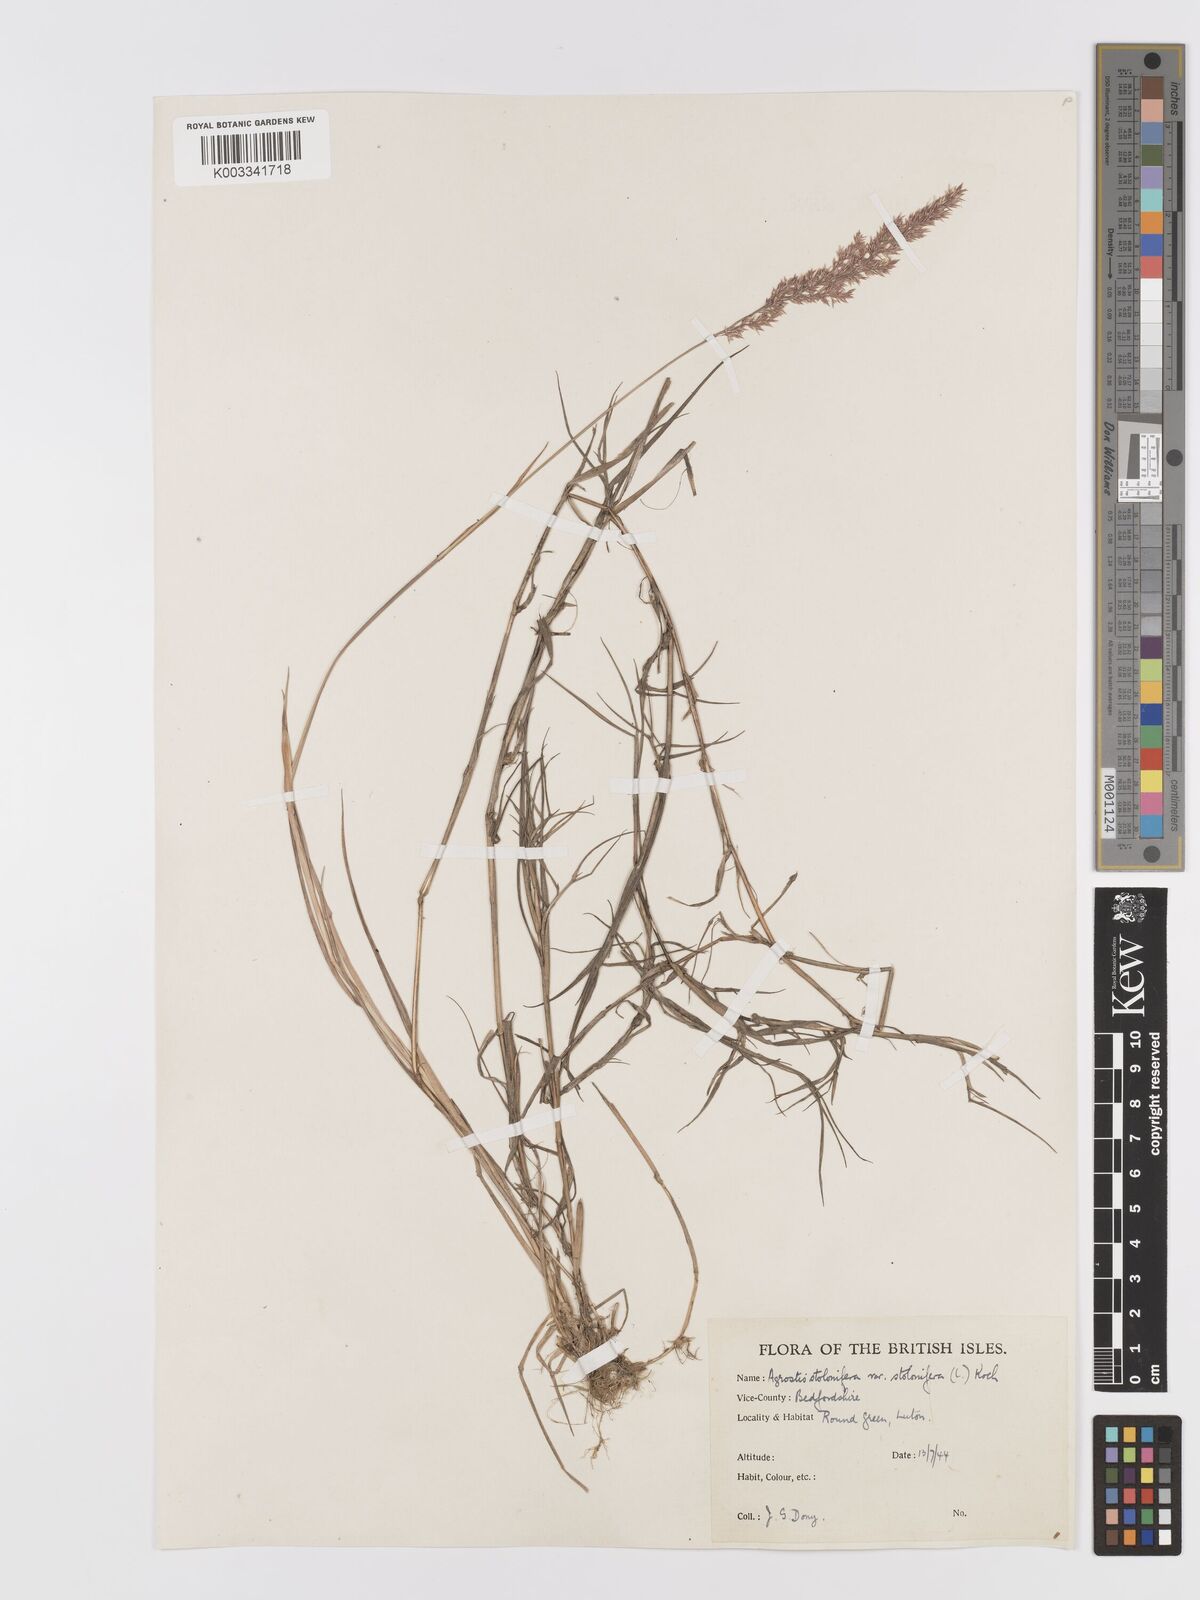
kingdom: Plantae
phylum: Tracheophyta
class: Liliopsida
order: Poales
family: Poaceae
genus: Agrostis
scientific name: Agrostis stolonifera
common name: Creeping bentgrass
